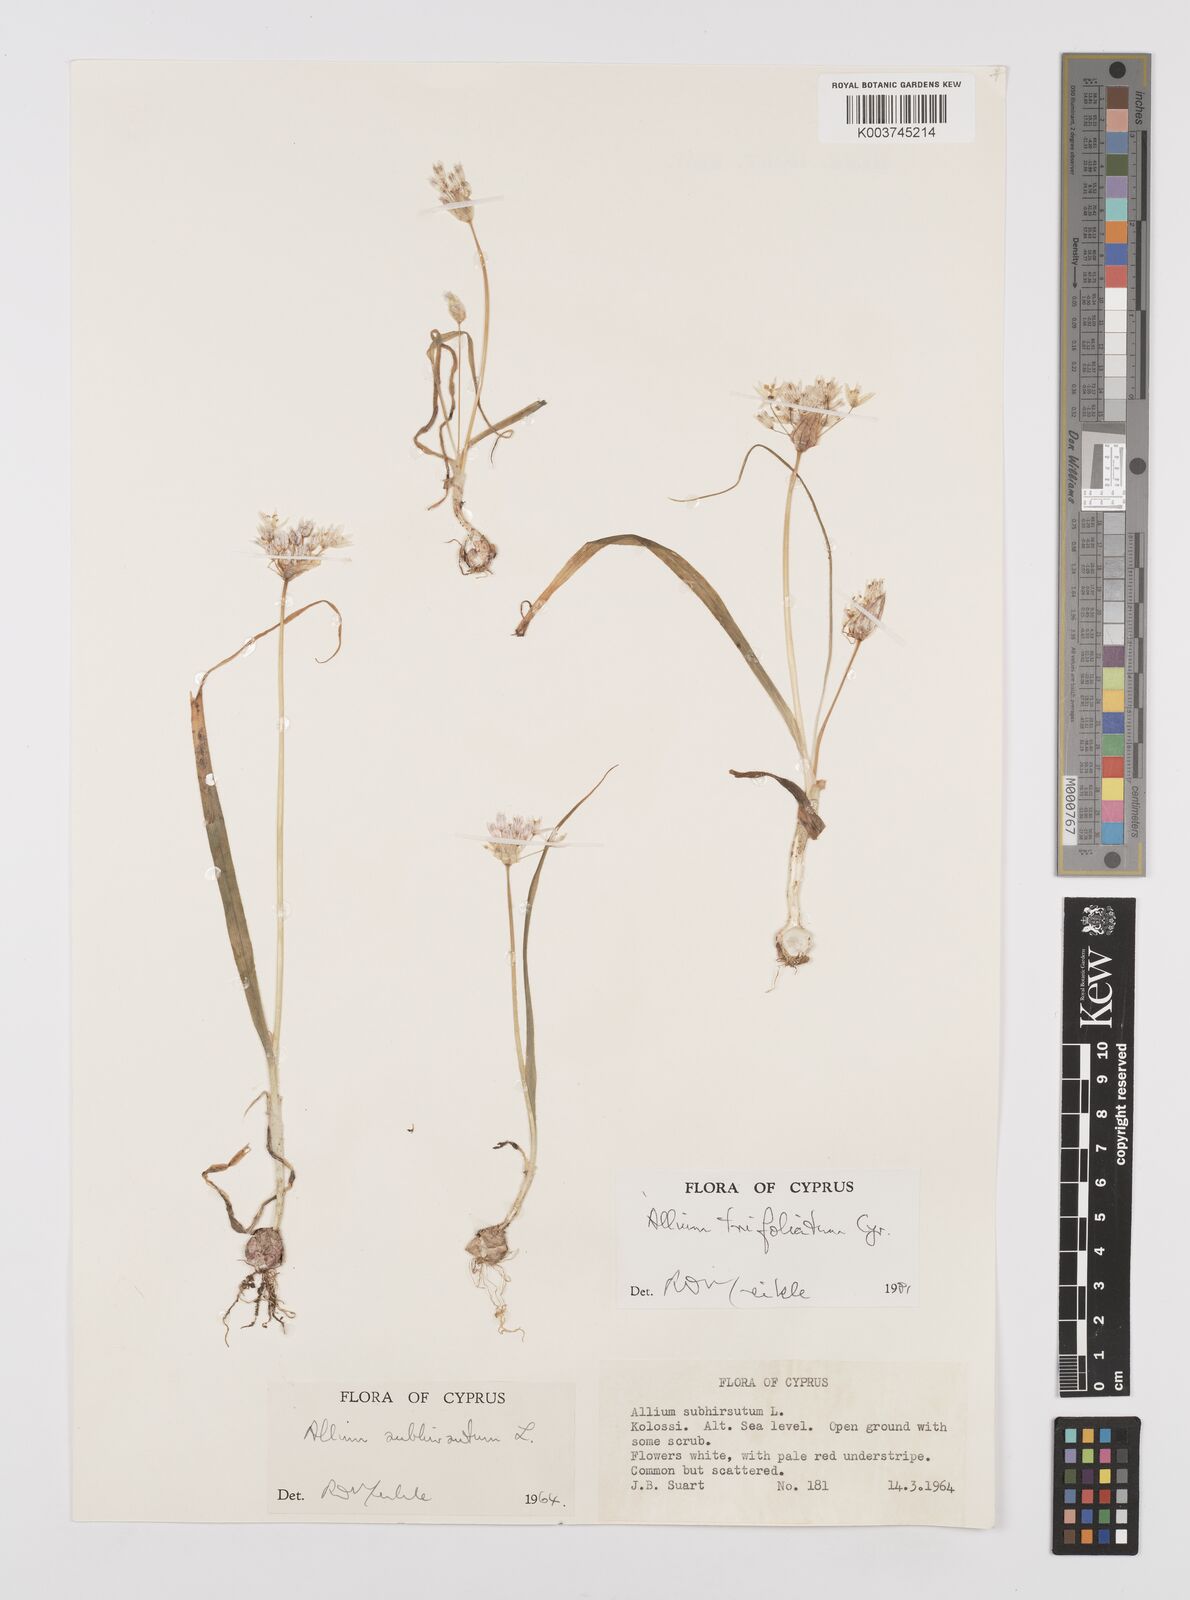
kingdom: Plantae
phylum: Tracheophyta
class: Liliopsida
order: Asparagales
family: Amaryllidaceae
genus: Allium
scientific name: Allium trifoliatum
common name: Pink garlic
